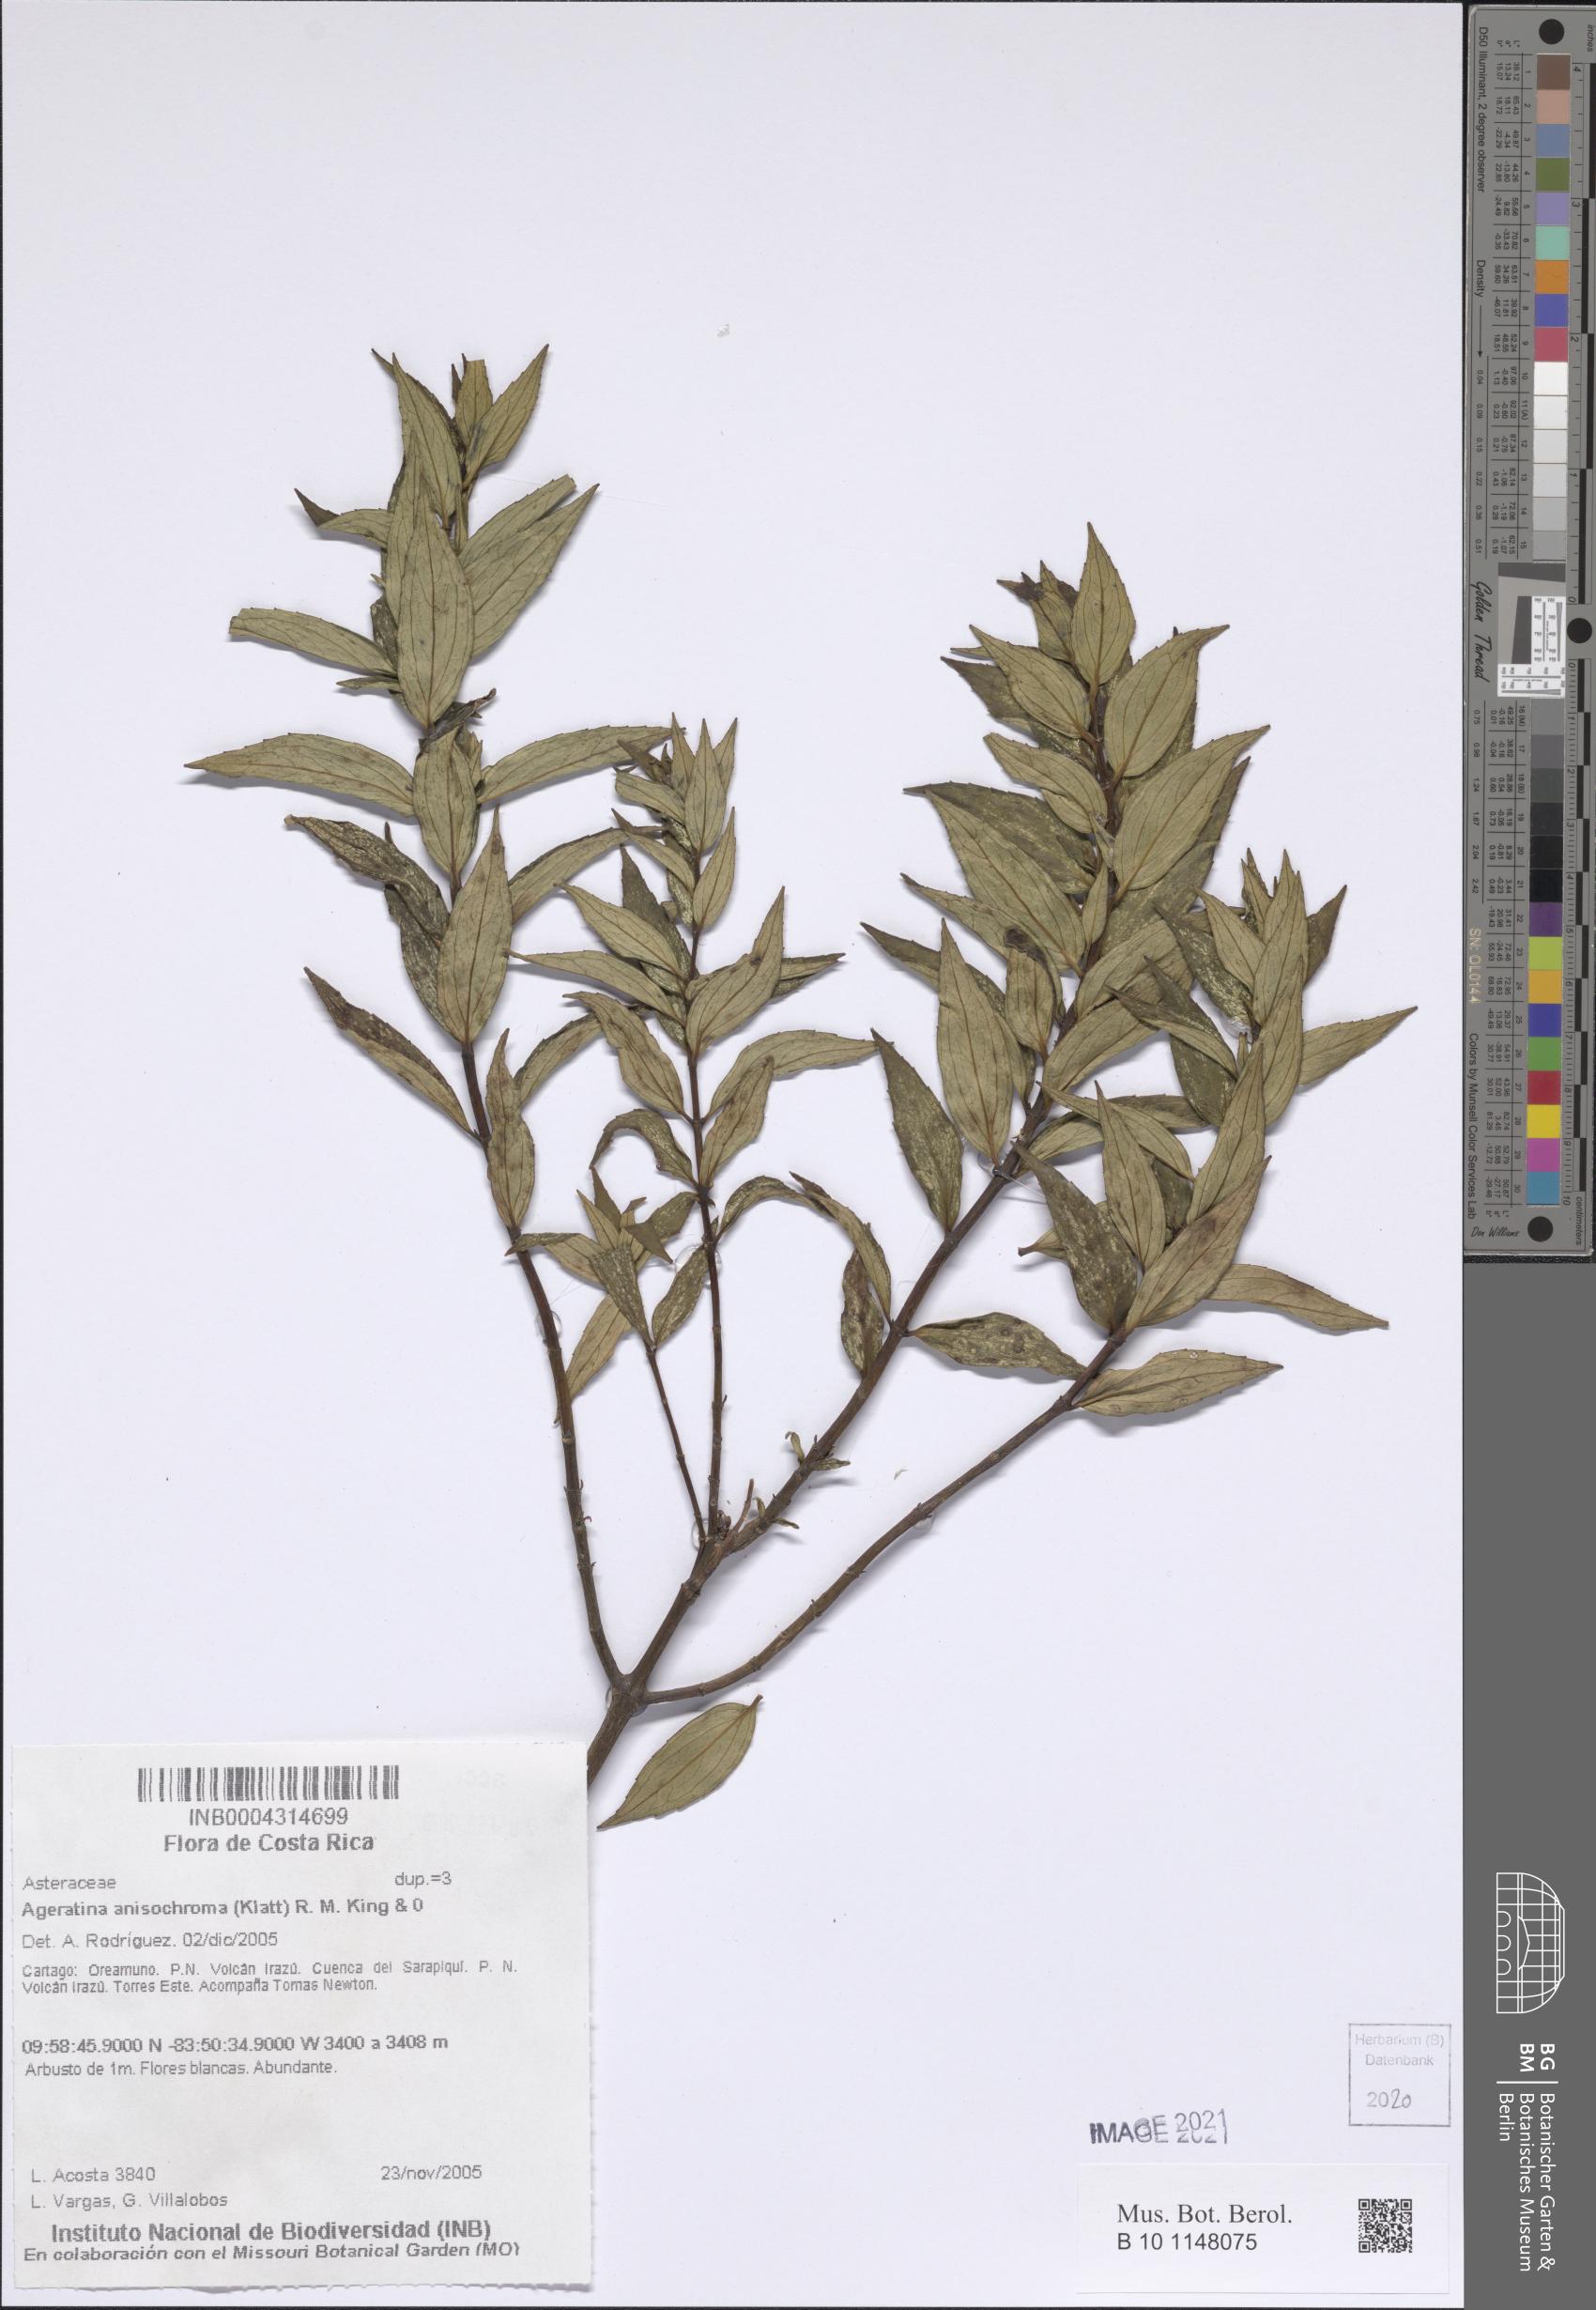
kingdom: Plantae
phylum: Tracheophyta
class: Magnoliopsida
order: Asterales
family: Asteraceae
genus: Ageratina
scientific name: Ageratina anisochroma
